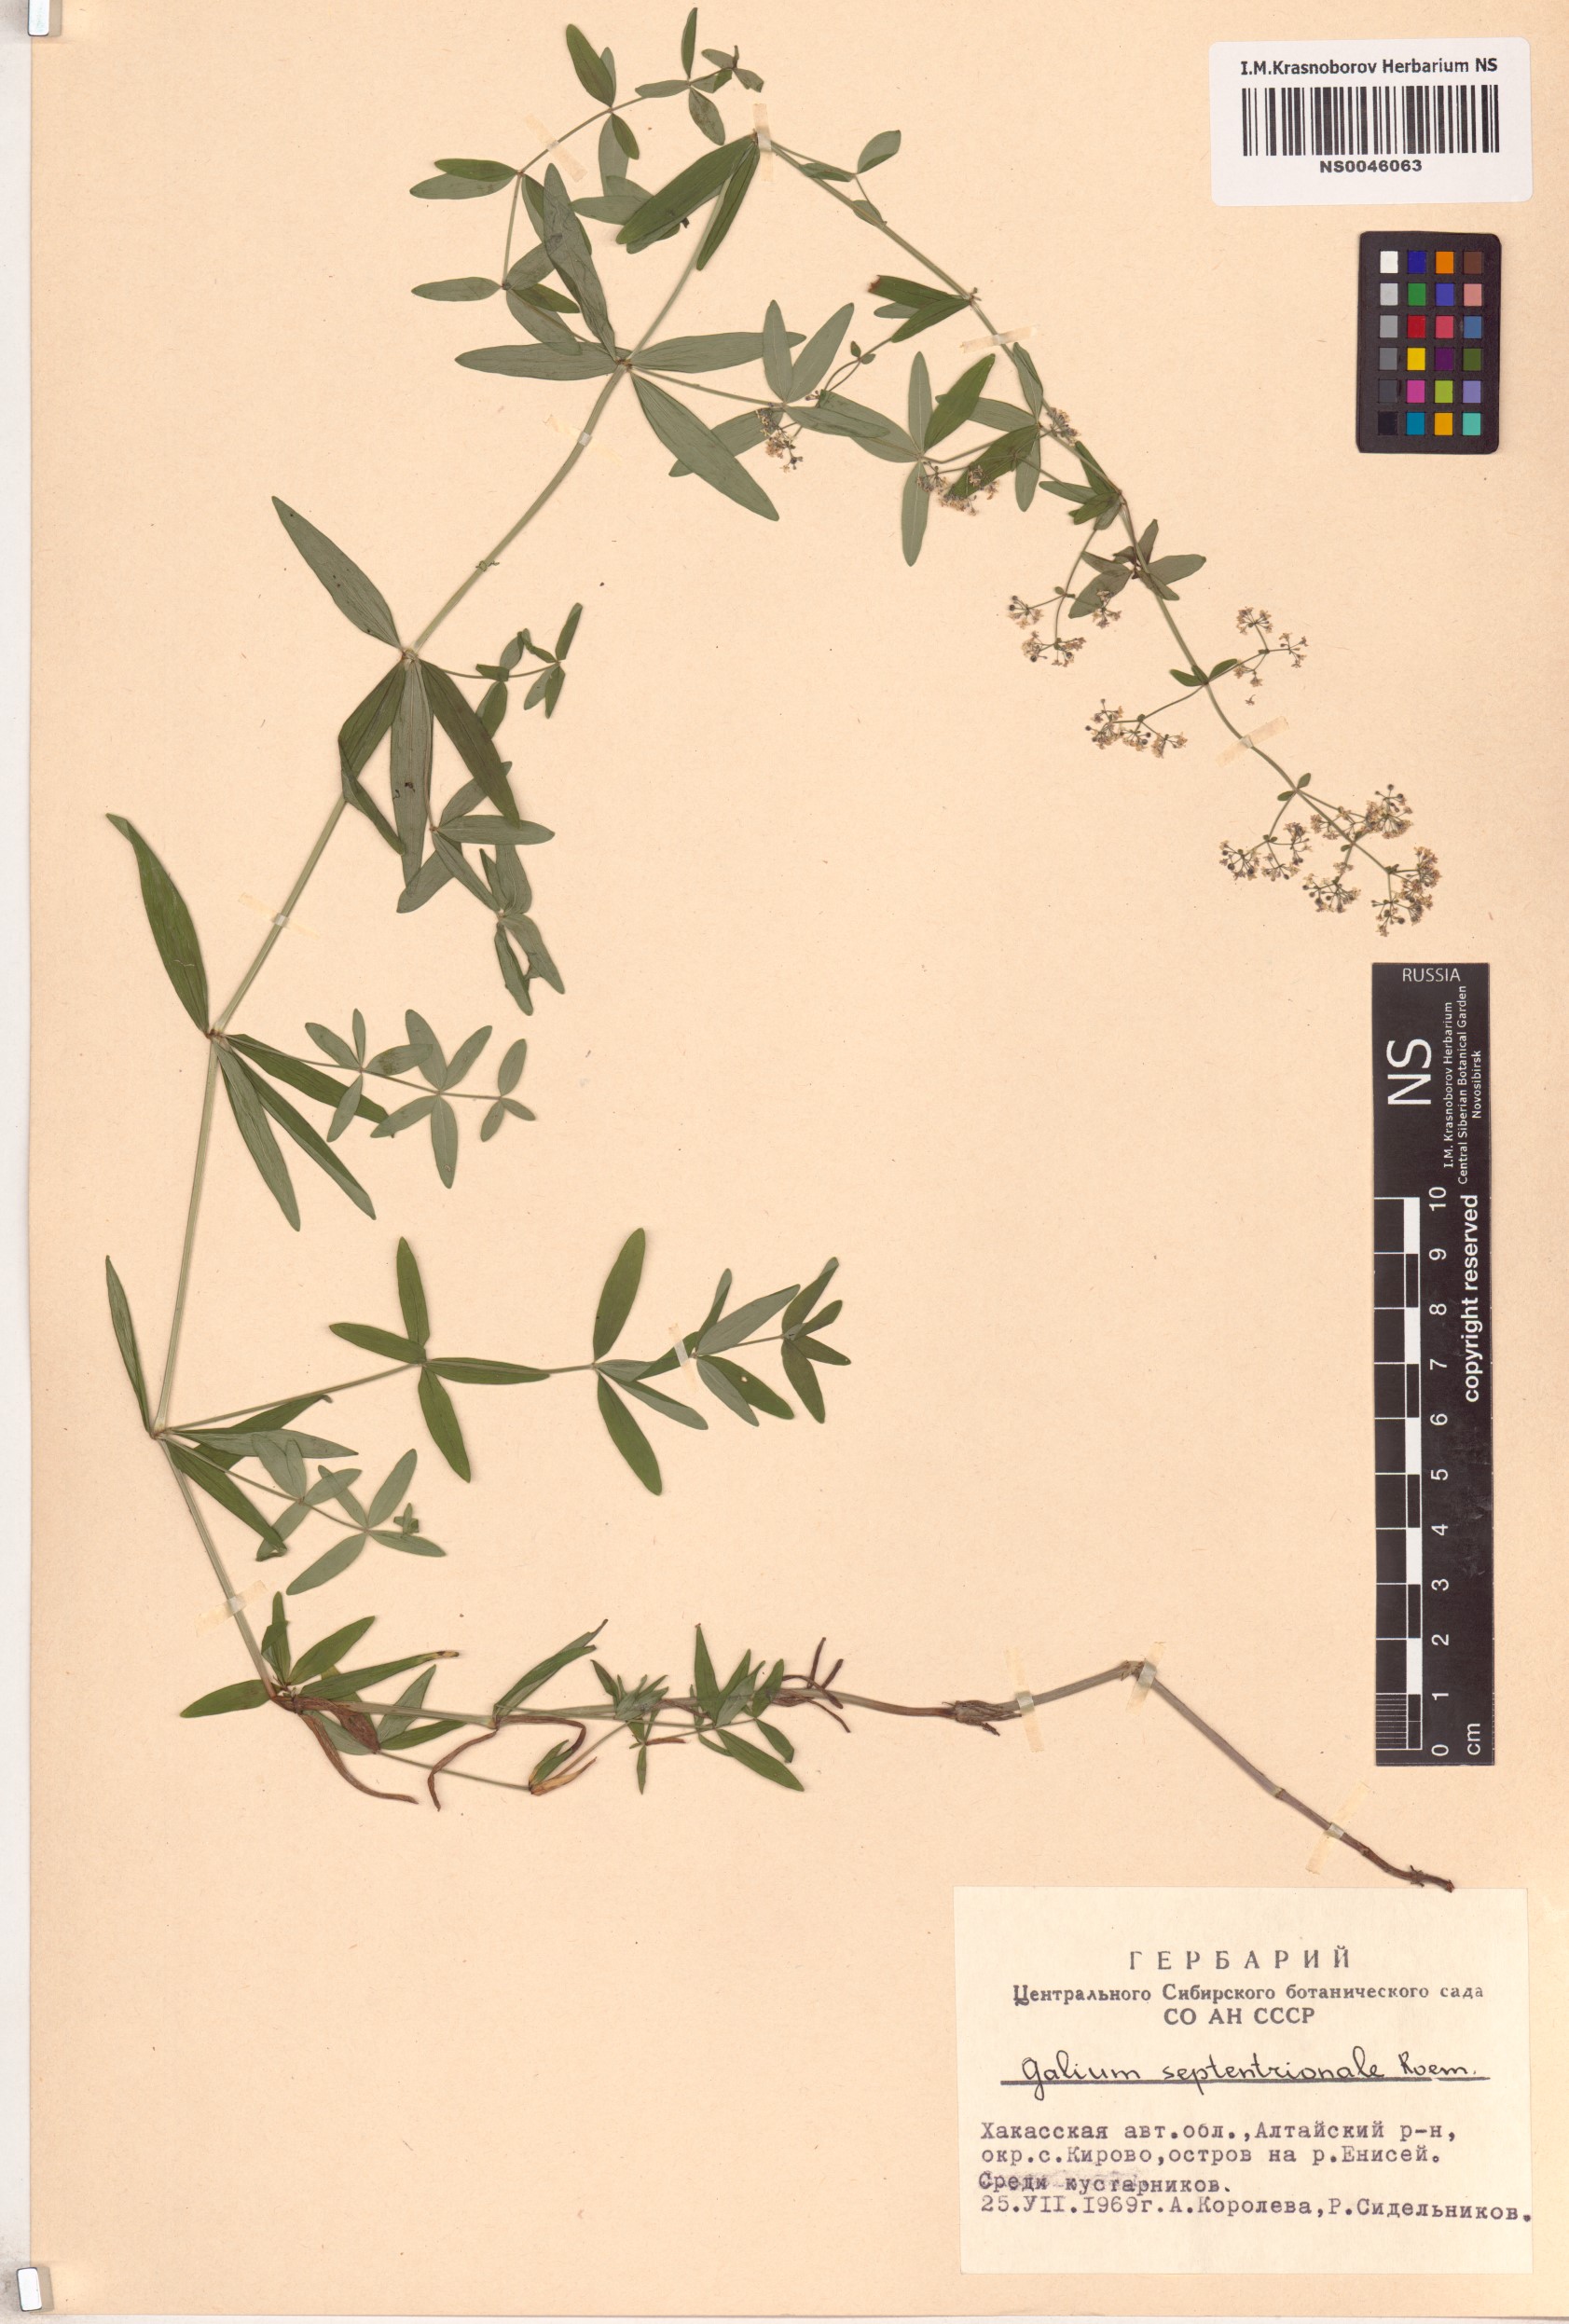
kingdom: Plantae
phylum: Tracheophyta
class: Magnoliopsida
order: Gentianales
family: Rubiaceae
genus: Galium
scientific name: Galium boreale
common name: Northern bedstraw
